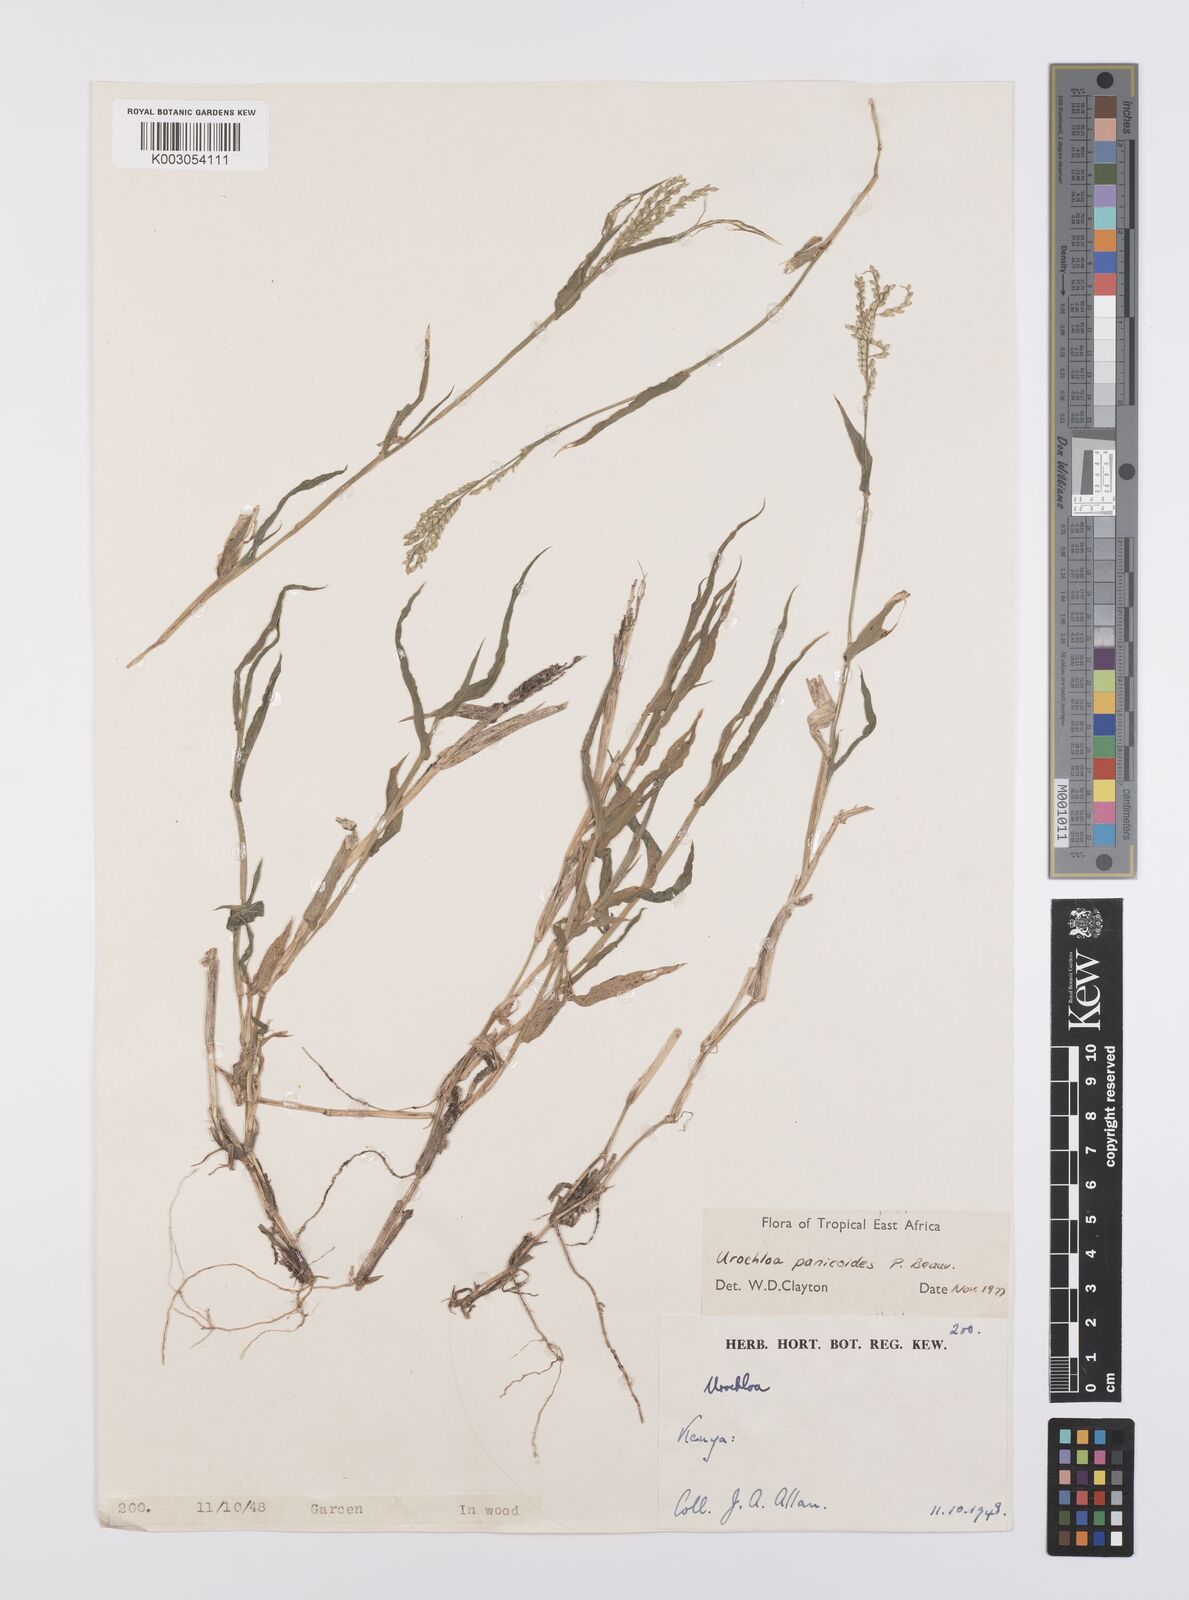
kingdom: Plantae
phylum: Tracheophyta
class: Liliopsida
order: Poales
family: Poaceae
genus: Urochloa
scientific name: Urochloa panicoides
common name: Sharp-flowered signal-grass
